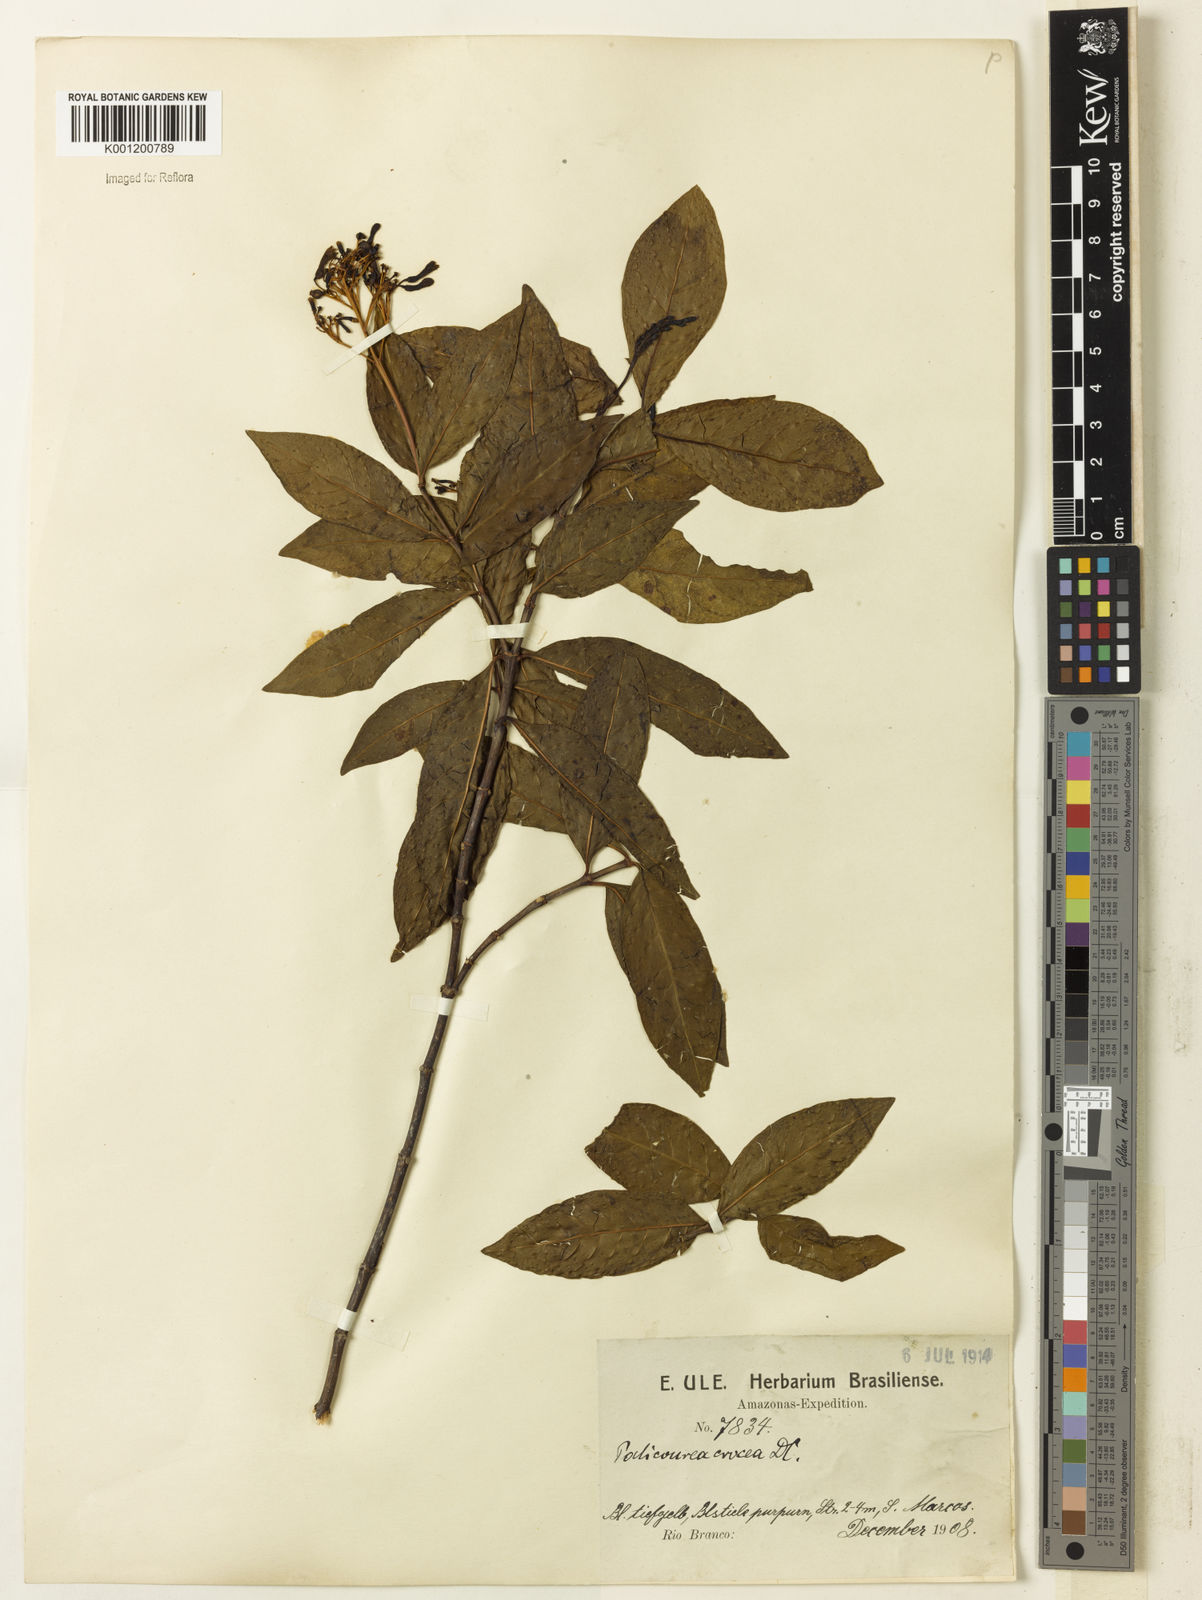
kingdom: Plantae
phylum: Tracheophyta
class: Magnoliopsida
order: Gentianales
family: Rubiaceae
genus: Palicourea
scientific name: Palicourea crocea
